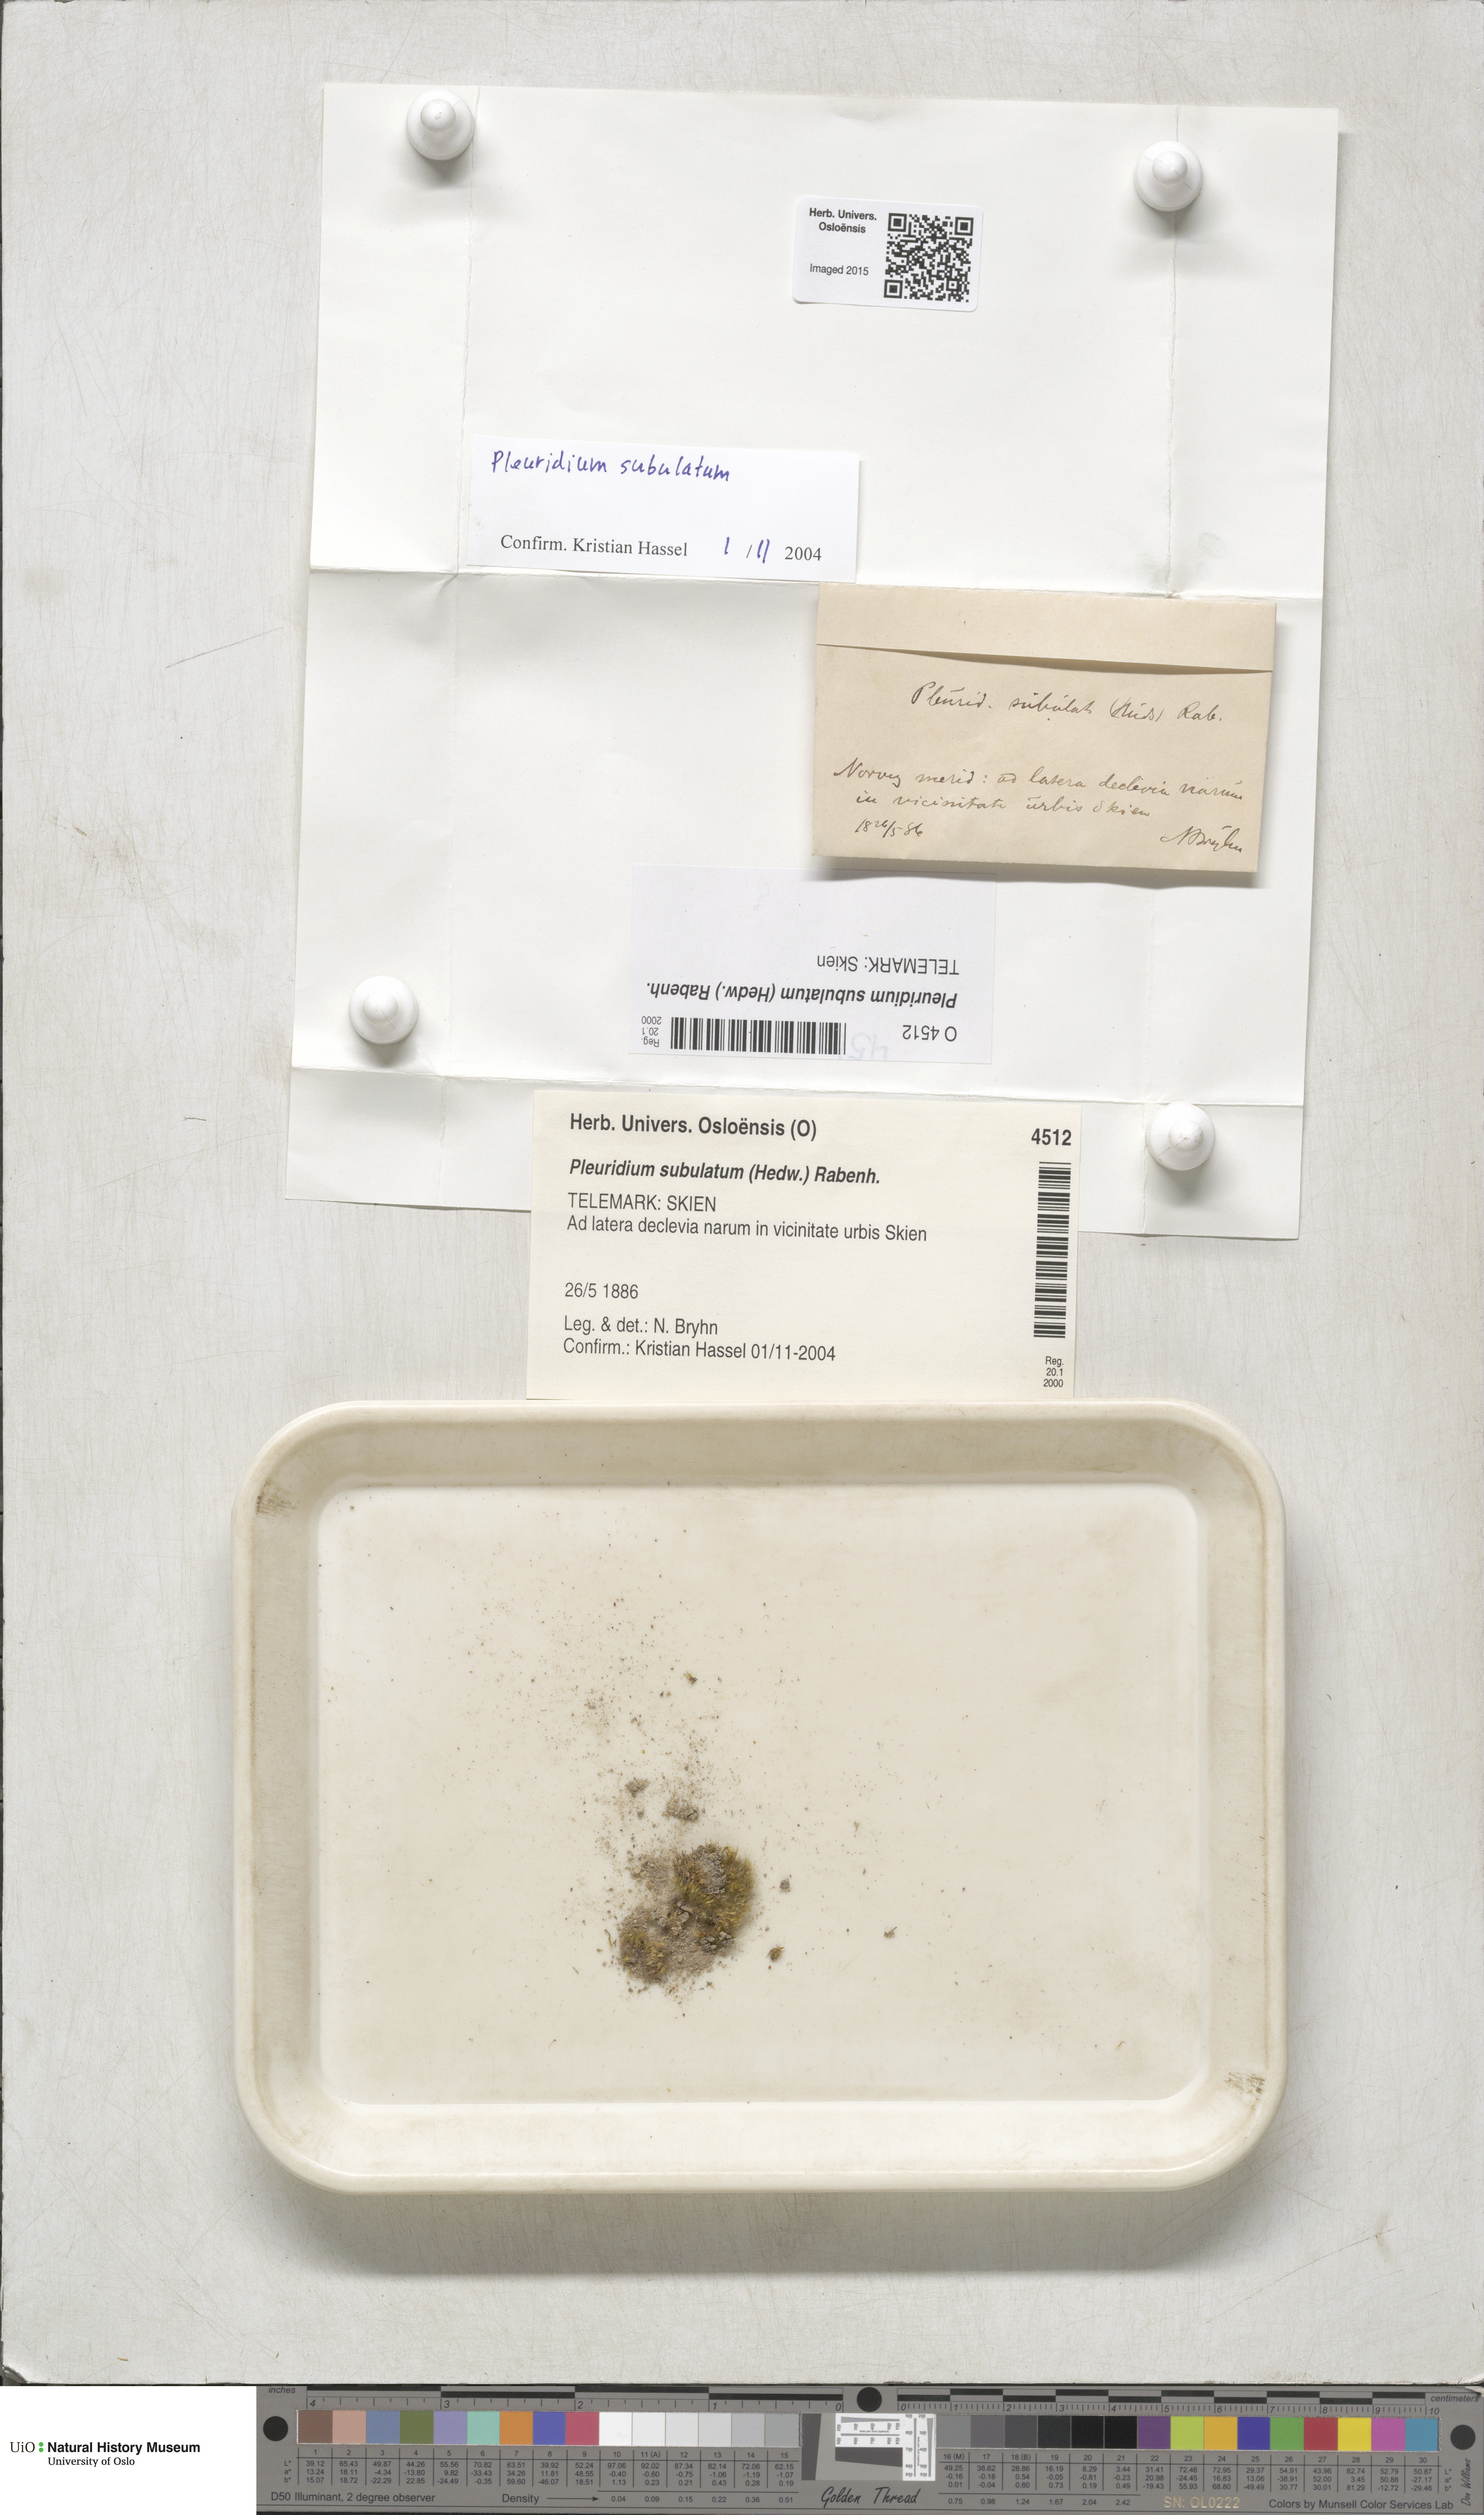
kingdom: Plantae
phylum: Bryophyta
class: Bryopsida
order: Dicranales
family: Ditrichaceae
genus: Pleuridium
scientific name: Pleuridium subulatum
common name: Awl-leaved earth-moss
